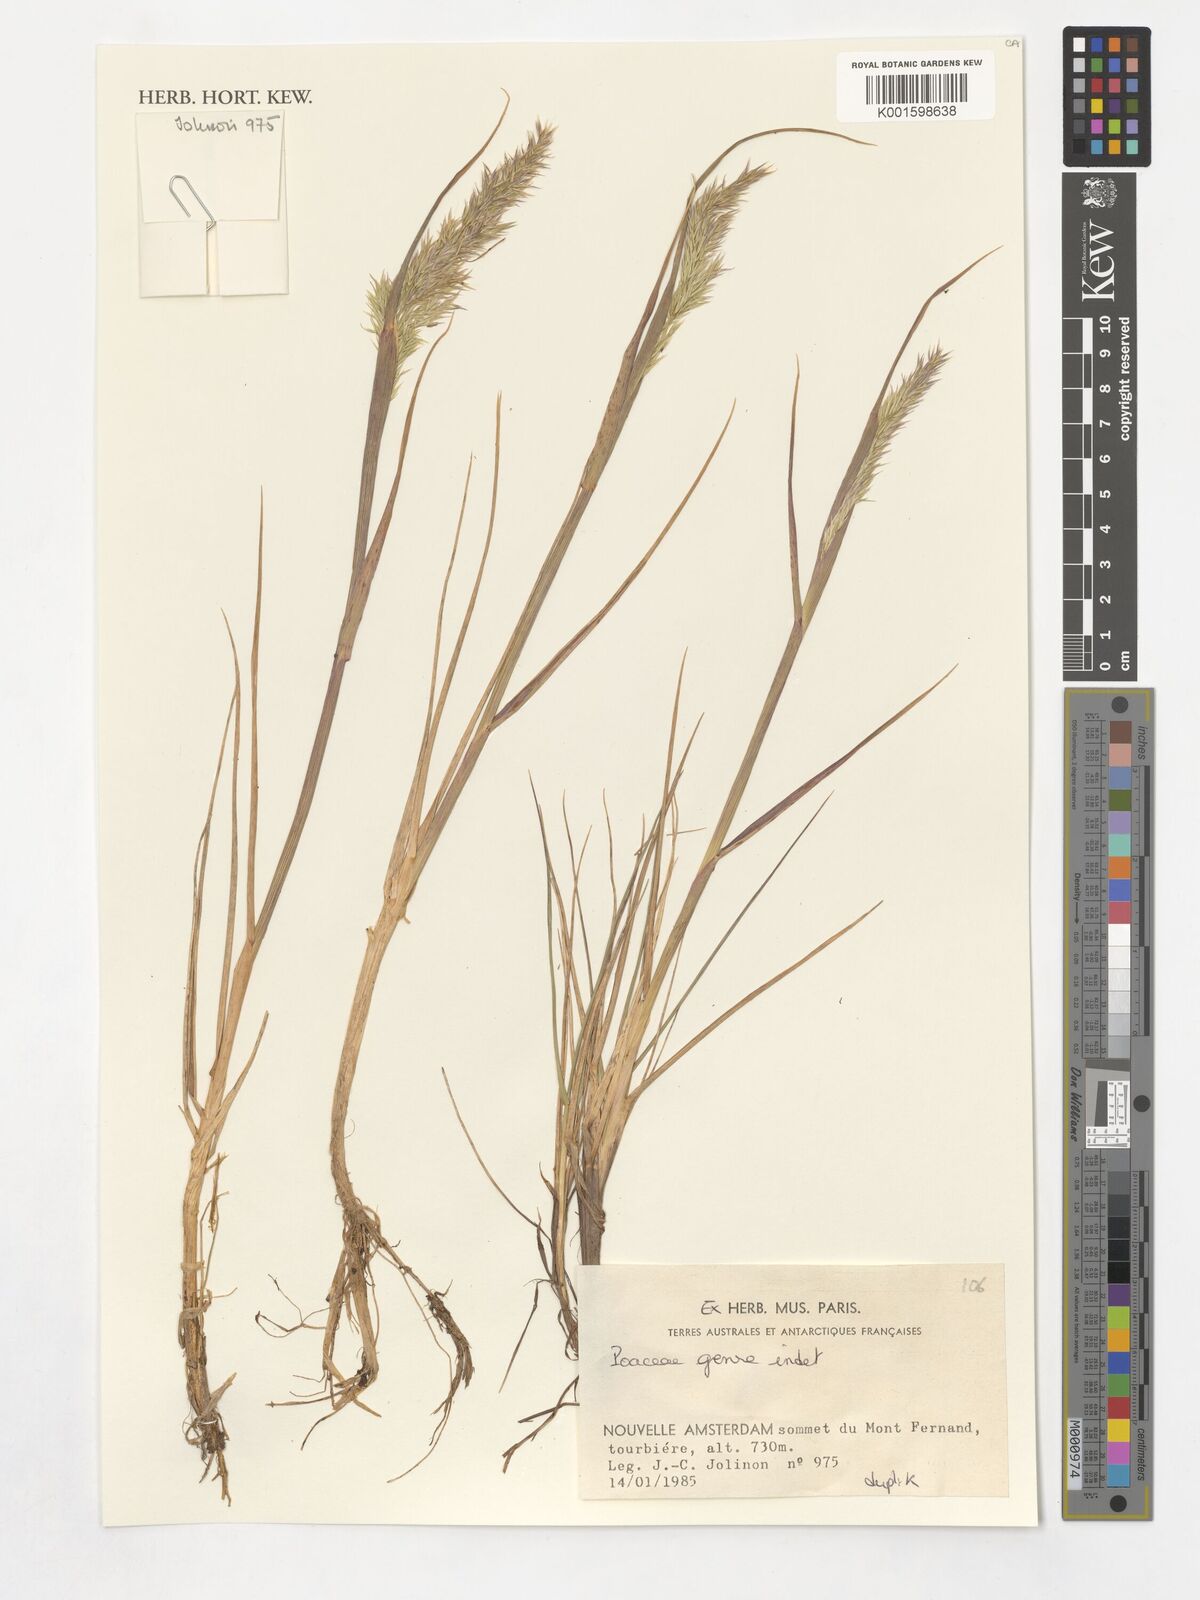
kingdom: Plantae
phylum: Tracheophyta
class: Liliopsida
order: Poales
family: Poaceae
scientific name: Poaceae
